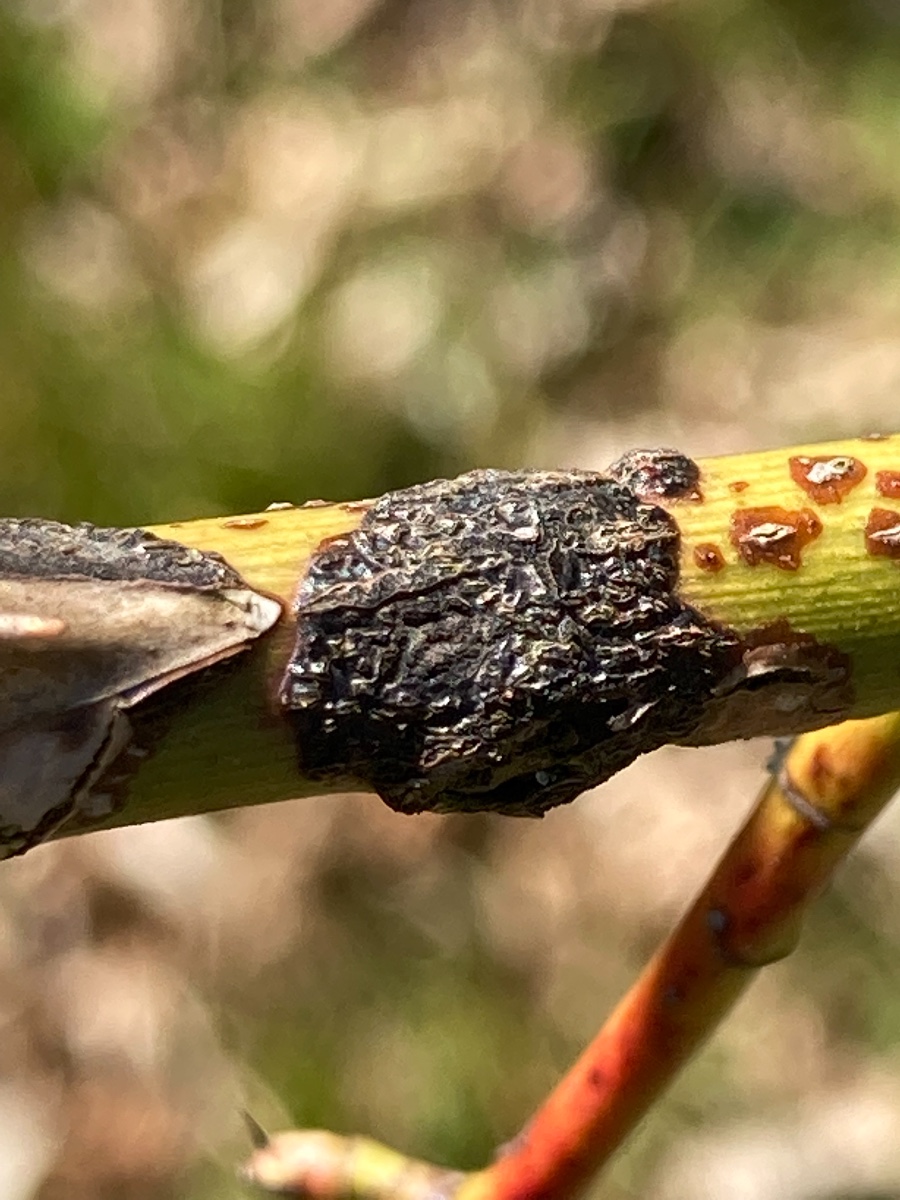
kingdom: Fungi
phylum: Ascomycota
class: Dothideomycetes
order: Botryosphaeriales
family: Botryosphaeriaceae
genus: Botryosphaeria
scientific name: Botryosphaeria dothidea
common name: Asteromyia gall midge fungus
